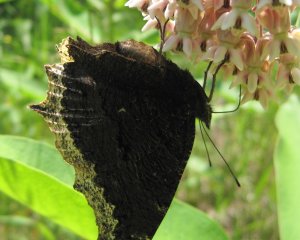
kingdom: Animalia
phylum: Arthropoda
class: Insecta
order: Lepidoptera
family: Nymphalidae
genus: Nymphalis
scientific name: Nymphalis antiopa
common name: Mourning Cloak
